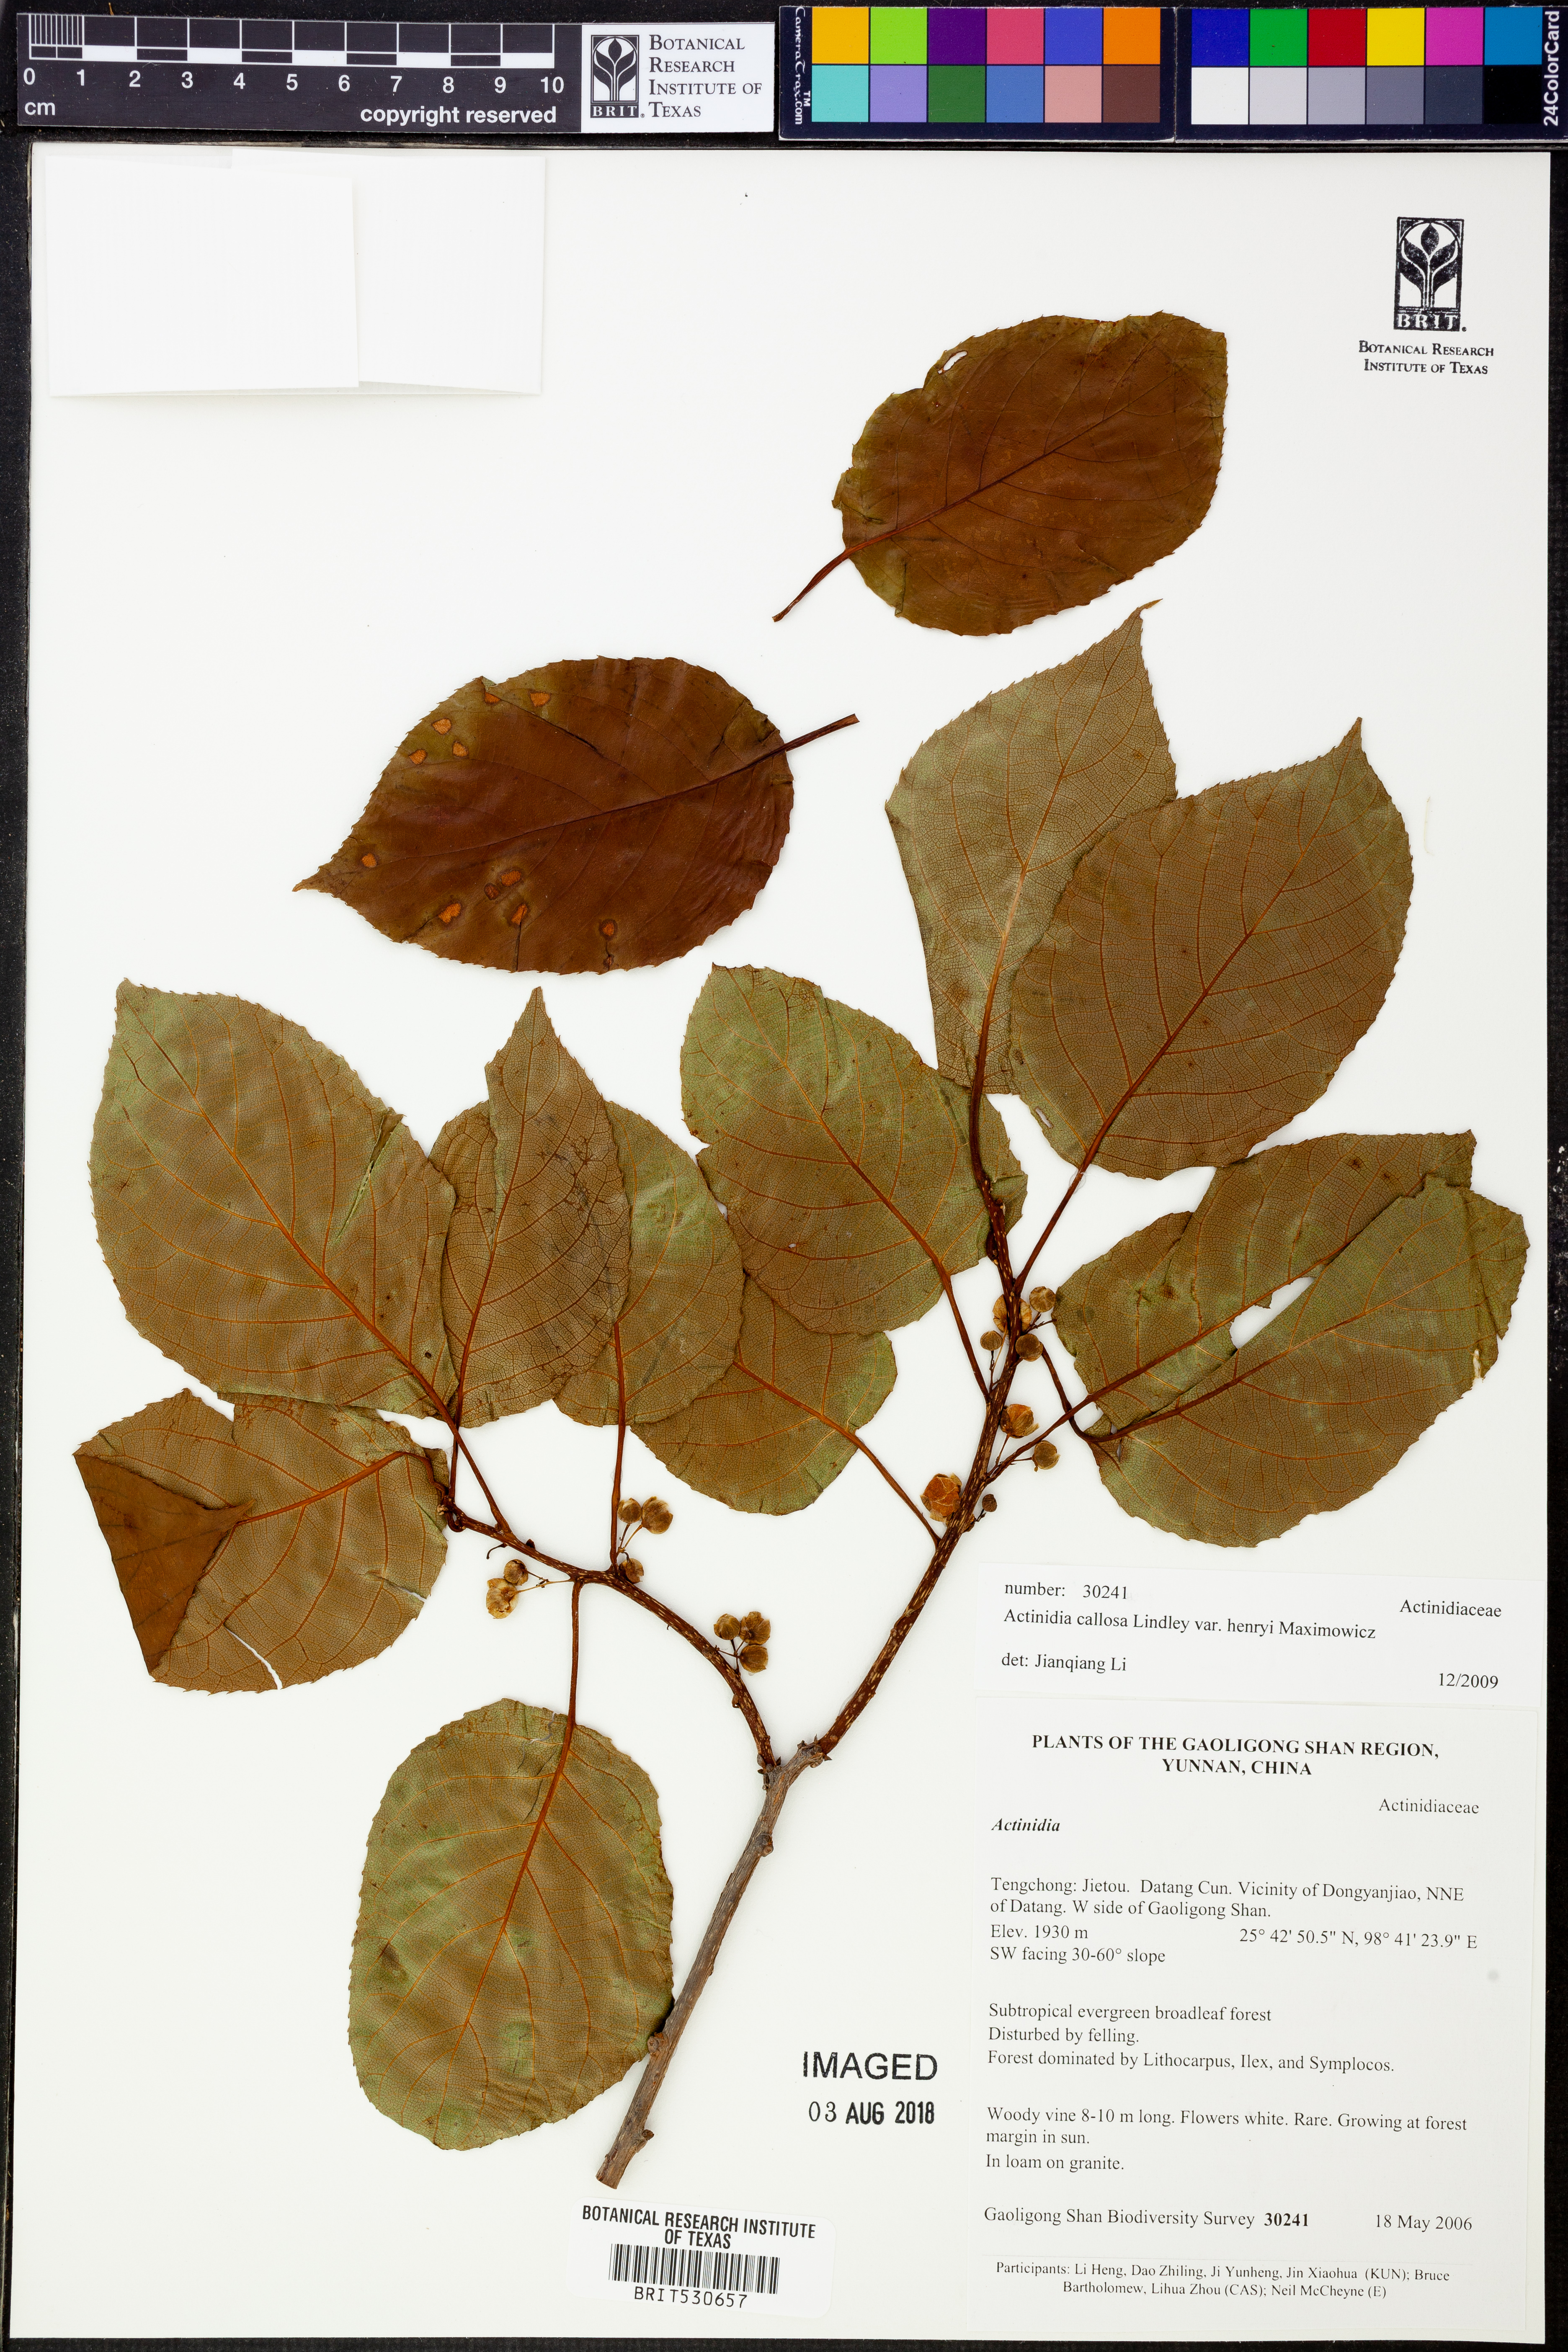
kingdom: Plantae
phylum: Tracheophyta
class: Magnoliopsida
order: Ericales
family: Actinidiaceae
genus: Actinidia
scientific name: Actinidia rufa
